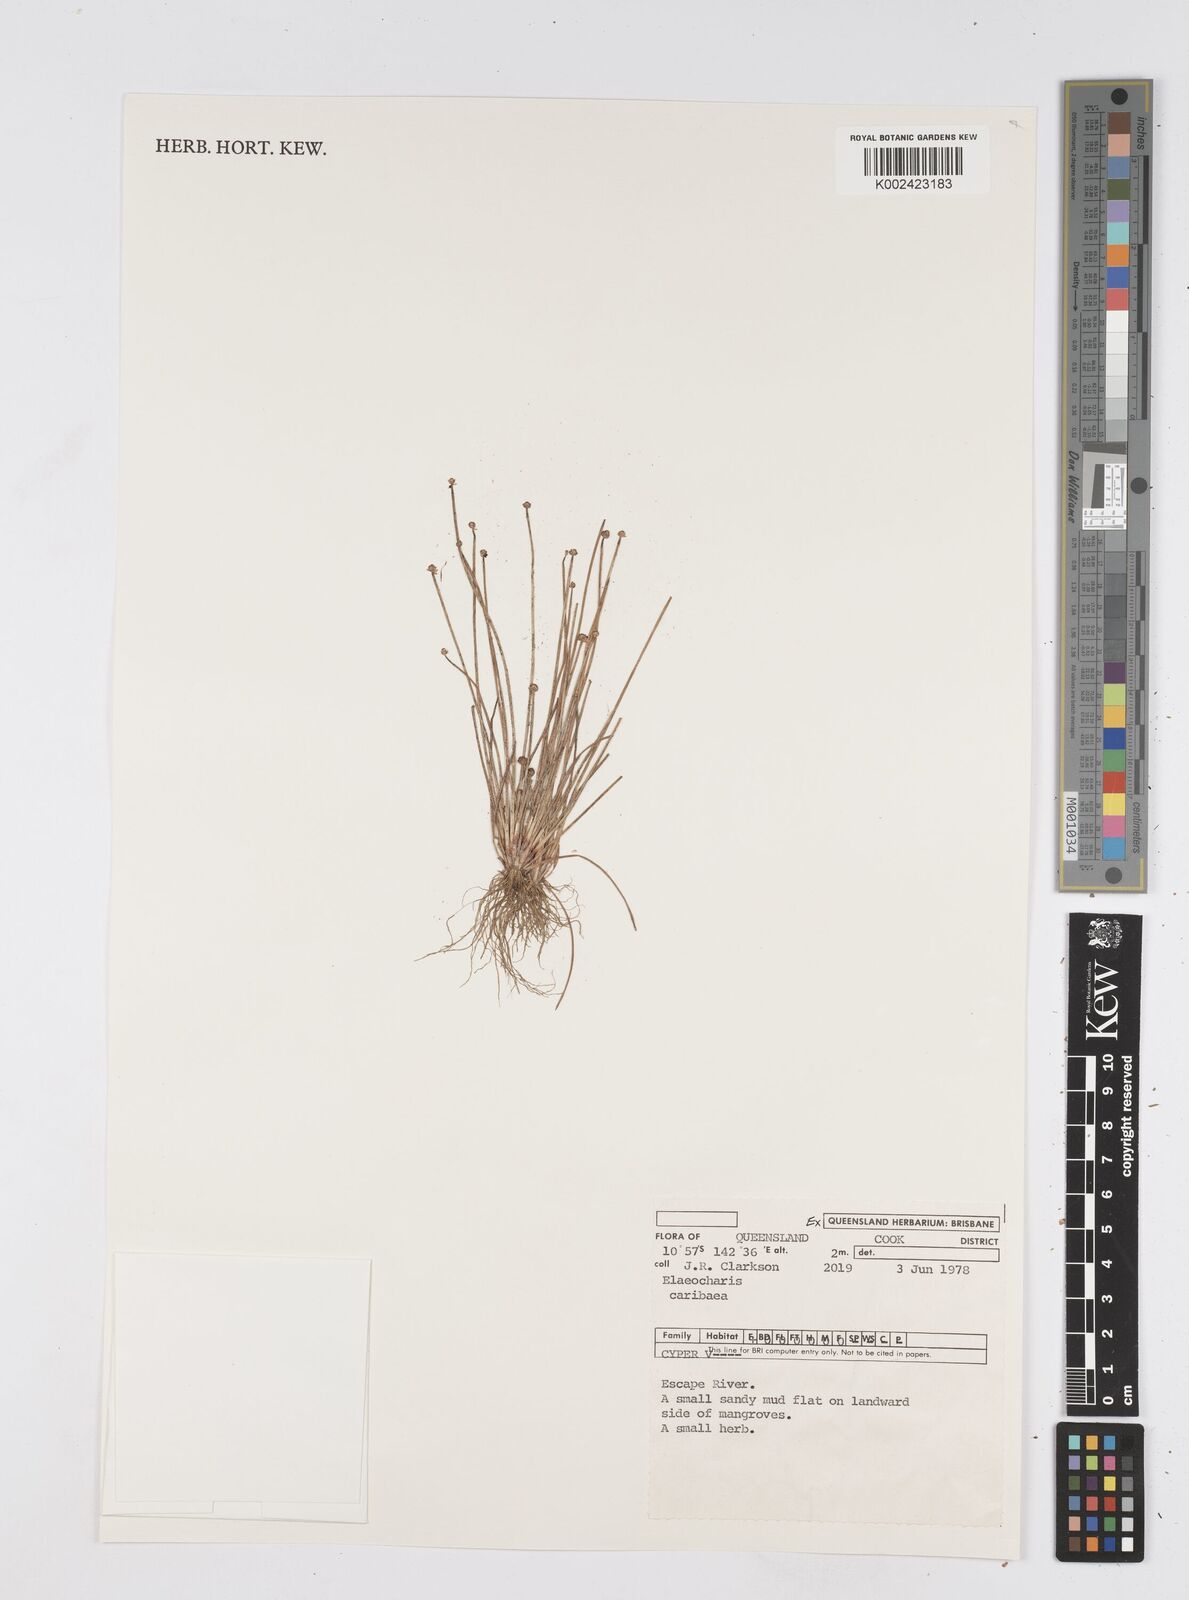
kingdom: Plantae
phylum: Tracheophyta
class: Liliopsida
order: Poales
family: Cyperaceae
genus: Eleocharis
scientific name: Eleocharis geniculata
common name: Canada spikesedge
